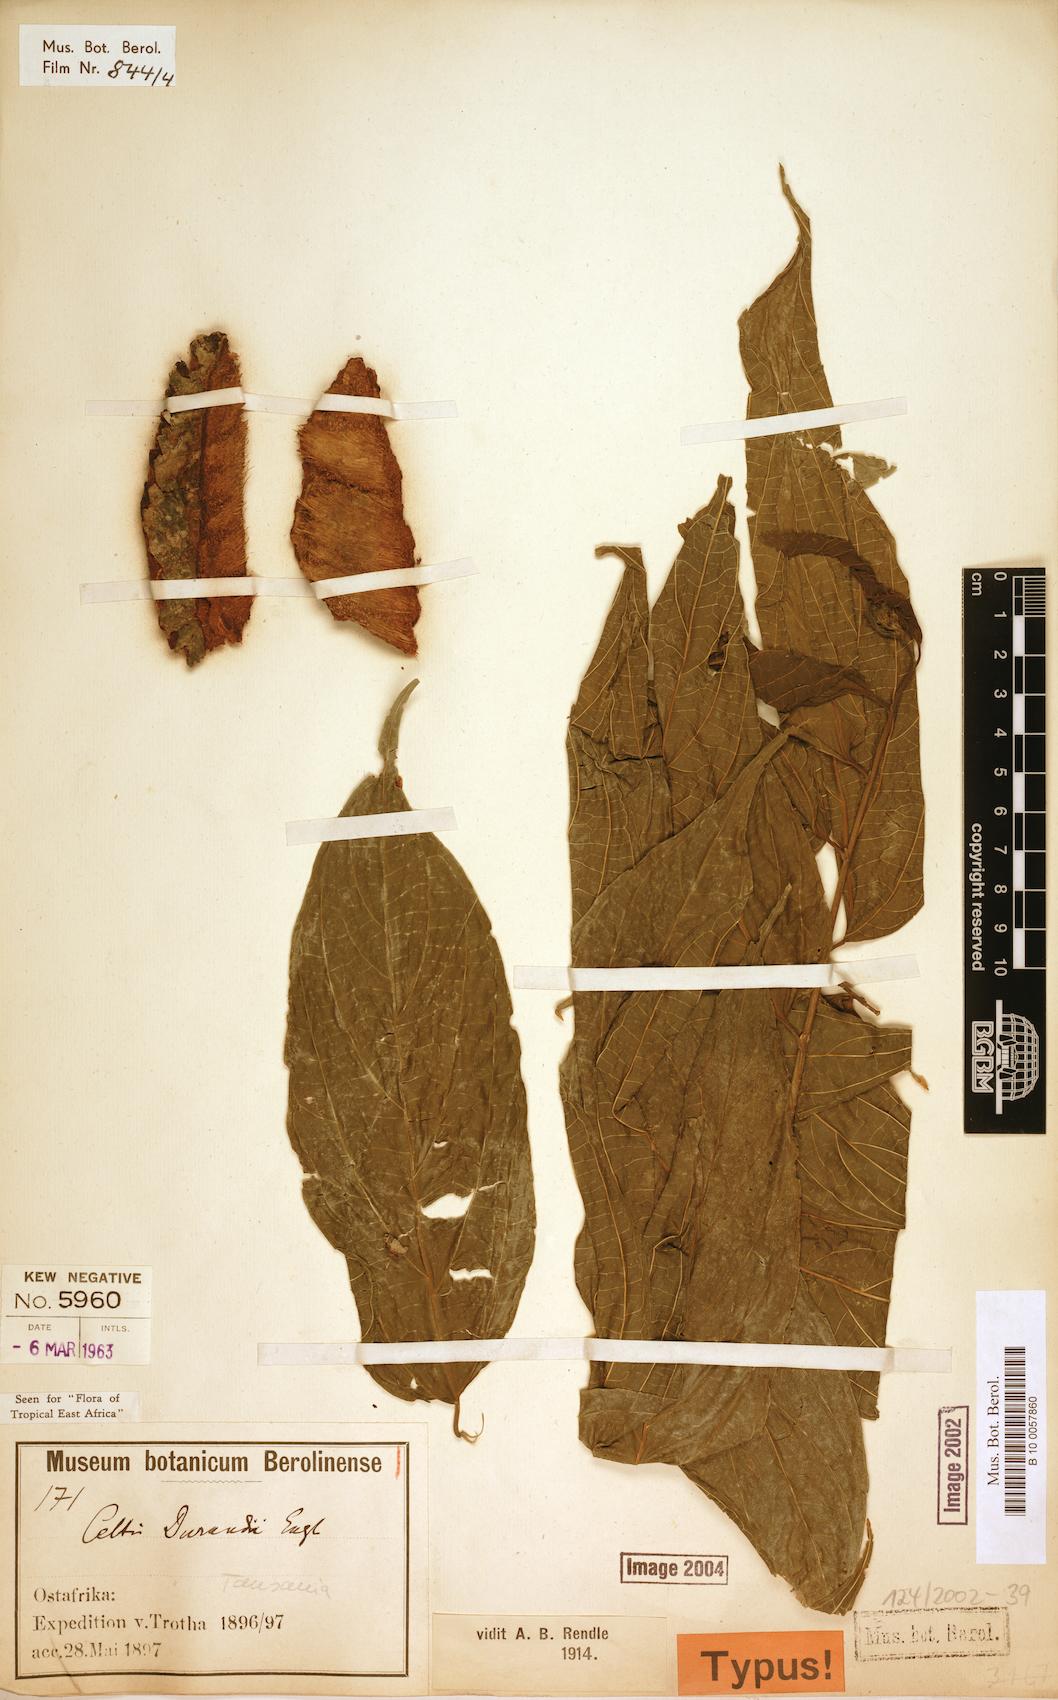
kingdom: Plantae
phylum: Tracheophyta
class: Magnoliopsida
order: Rosales
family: Cannabaceae
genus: Celtis
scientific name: Celtis gomphophylla
